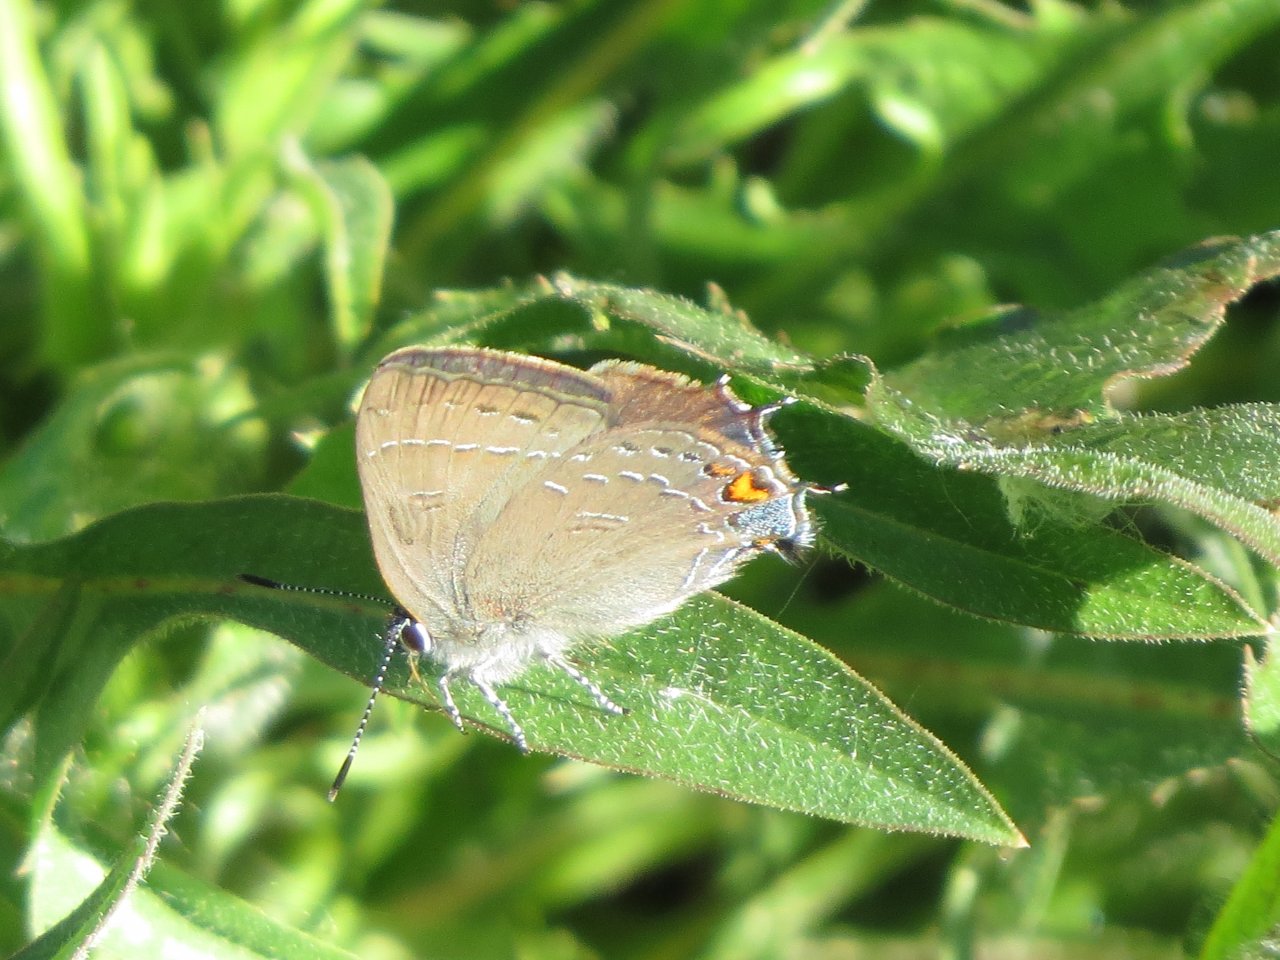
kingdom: Animalia
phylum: Arthropoda
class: Insecta
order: Lepidoptera
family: Lycaenidae
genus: Satyrium
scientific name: Satyrium calanus
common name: Banded Hairstreak
